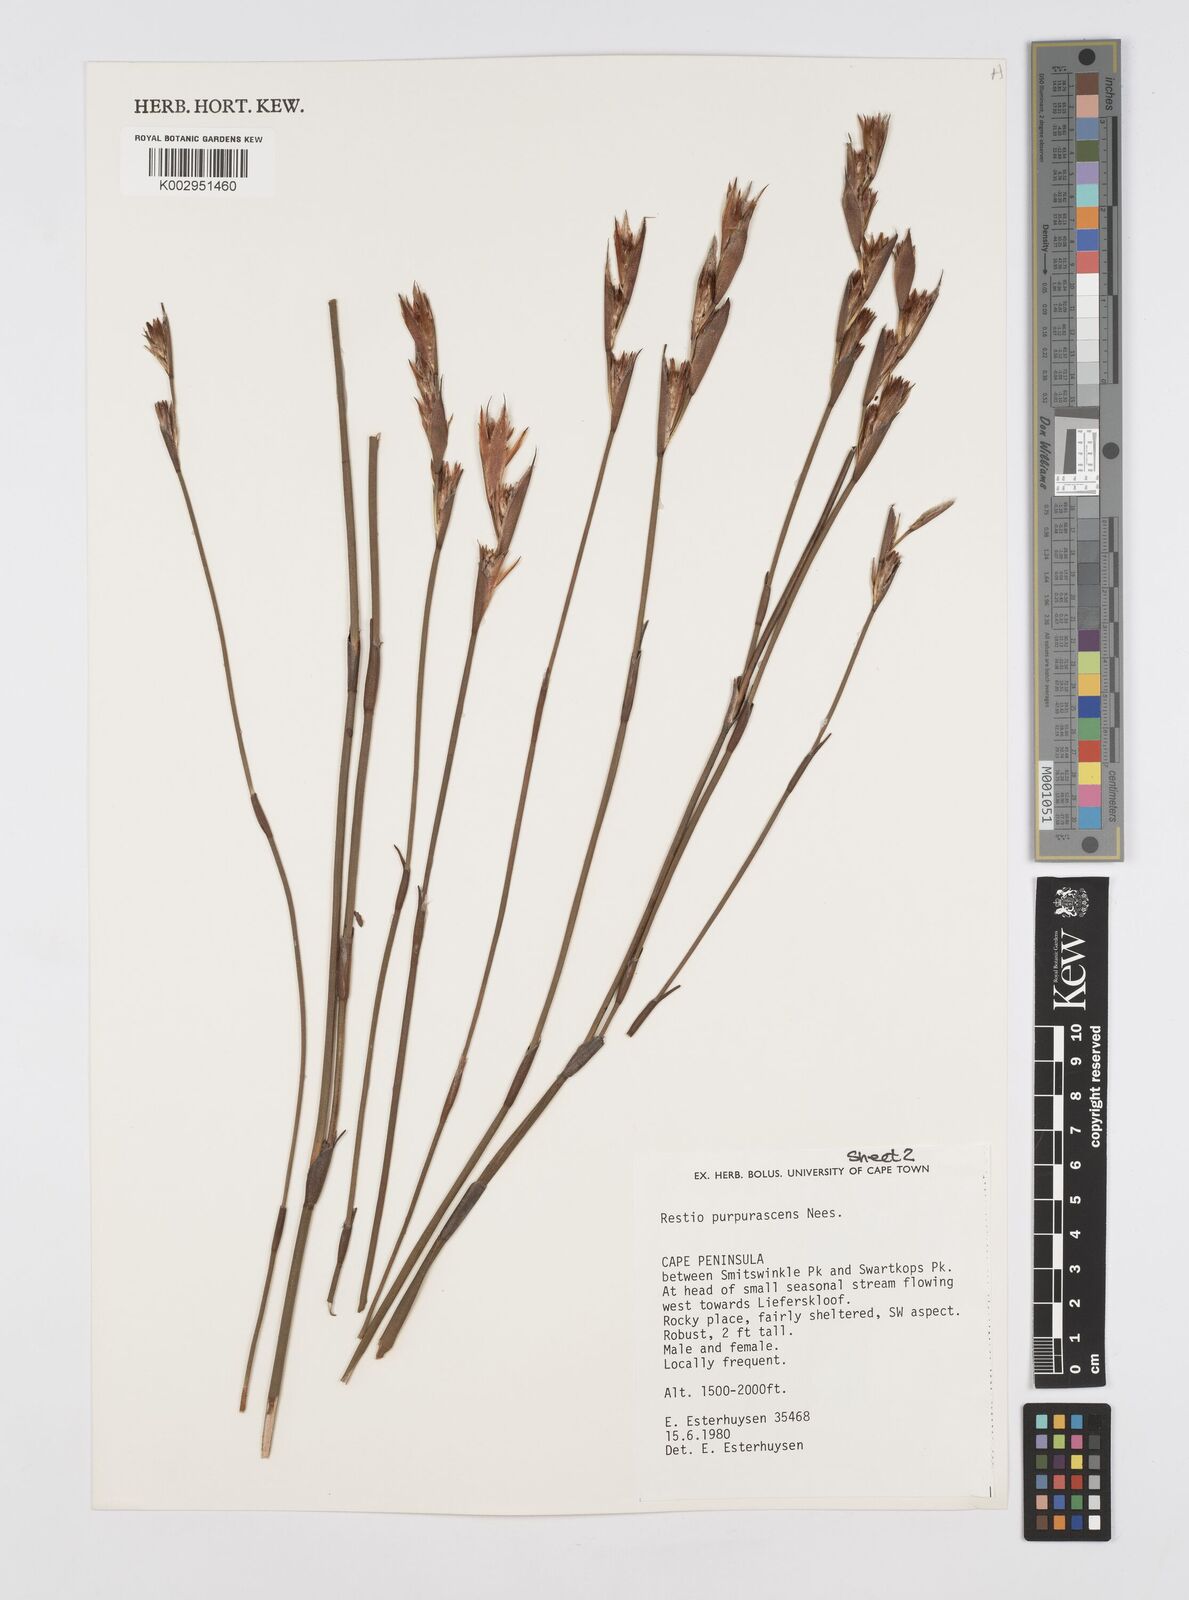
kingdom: Plantae
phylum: Tracheophyta
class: Liliopsida
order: Poales
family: Restionaceae
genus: Restio
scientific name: Restio purpurascens
